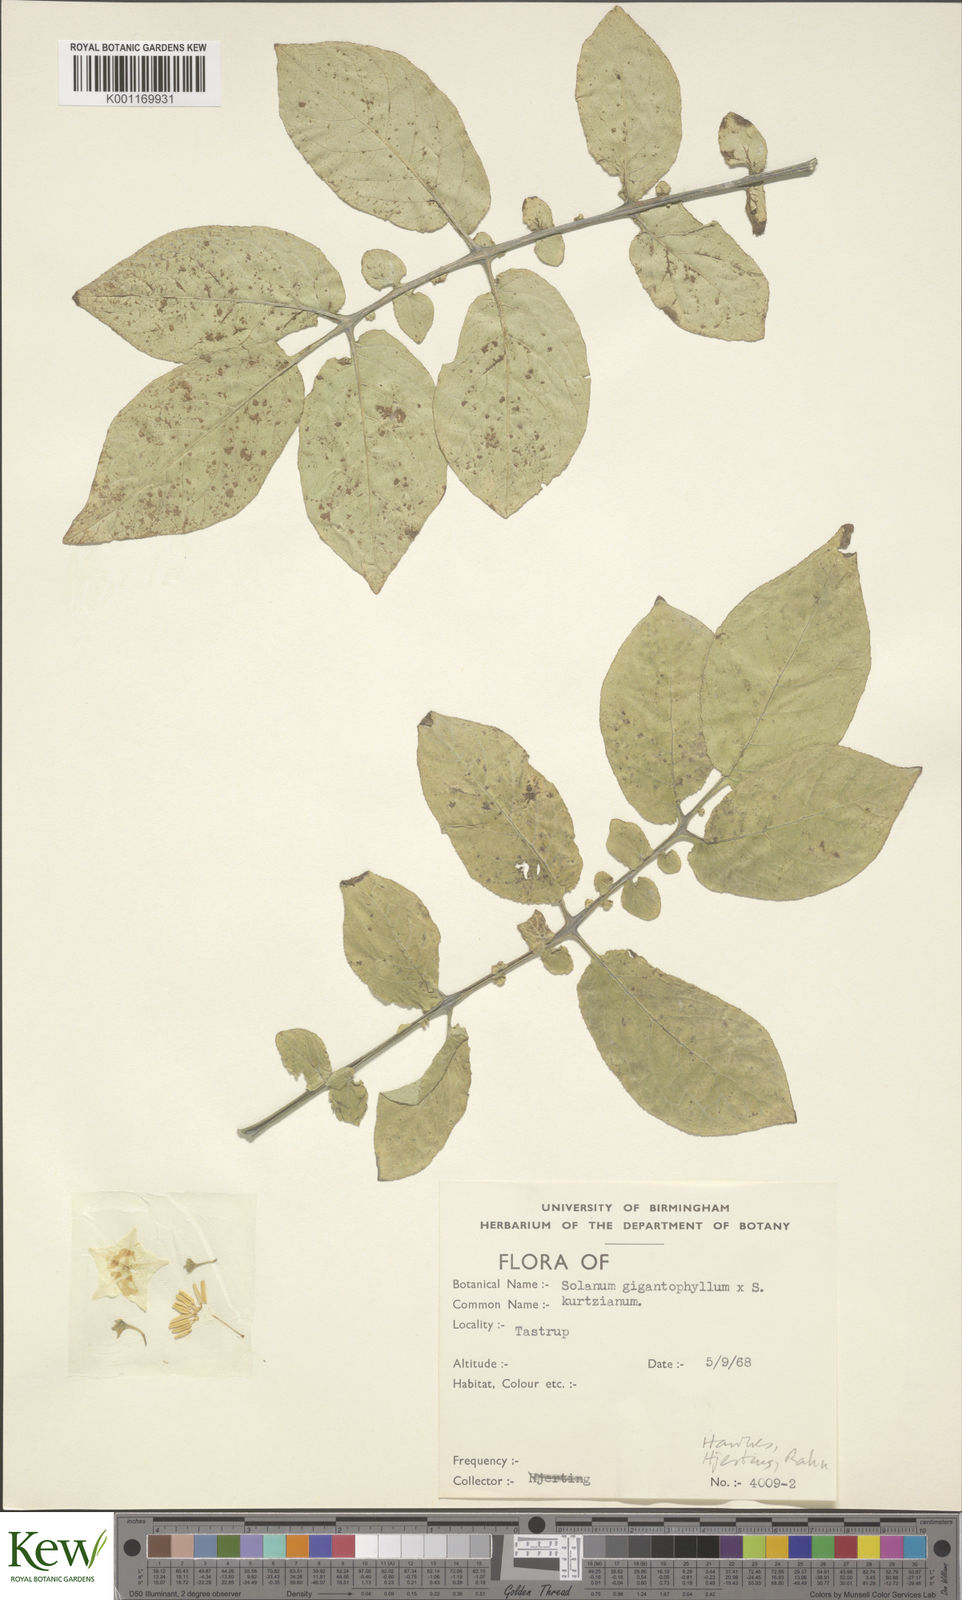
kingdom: Plantae
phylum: Tracheophyta
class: Magnoliopsida
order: Solanales
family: Solanaceae
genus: Solanum
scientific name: Solanum rechei
